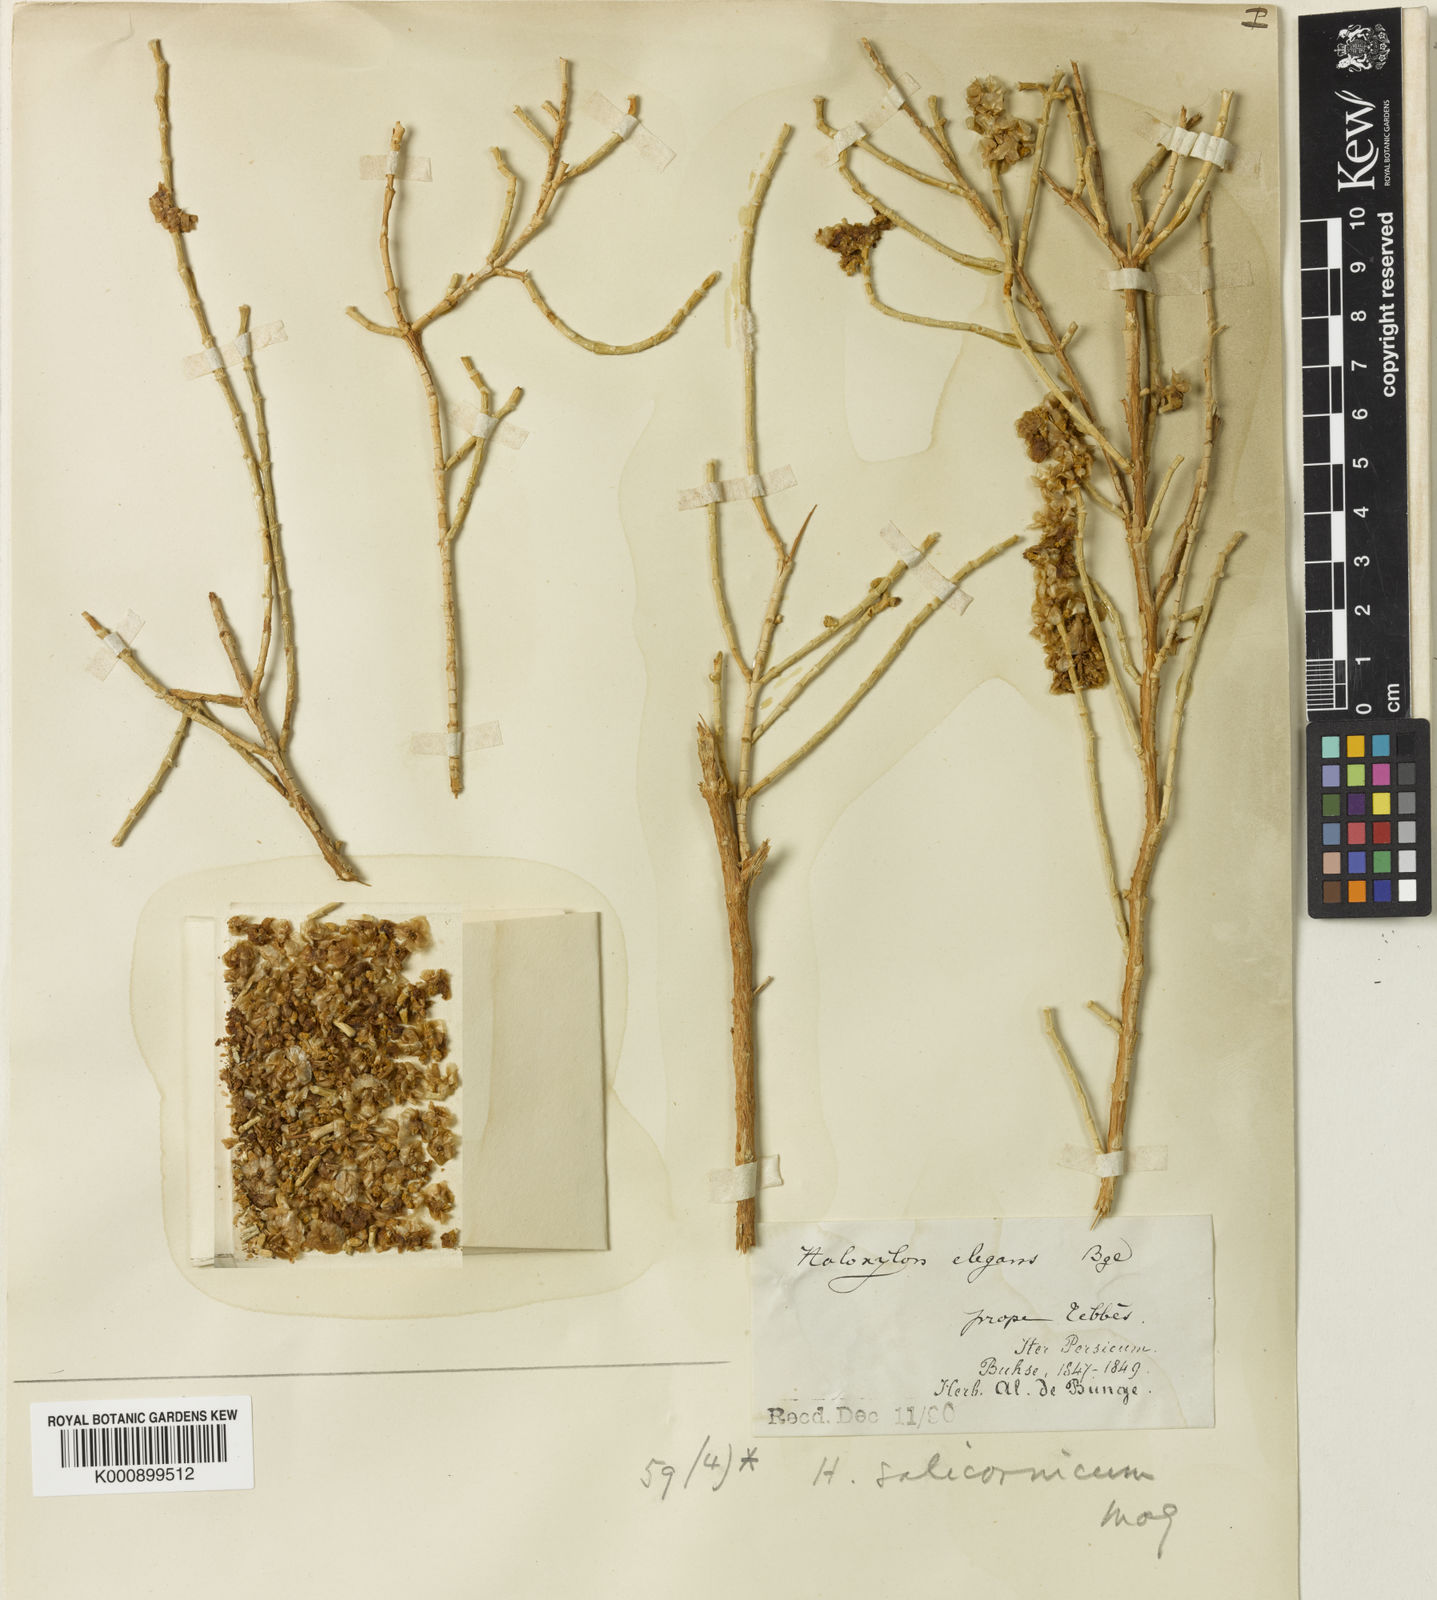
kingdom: Plantae
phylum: Tracheophyta
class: Magnoliopsida
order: Caryophyllales
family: Amaranthaceae
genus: Haloxylon
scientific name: Haloxylon salicornicum
